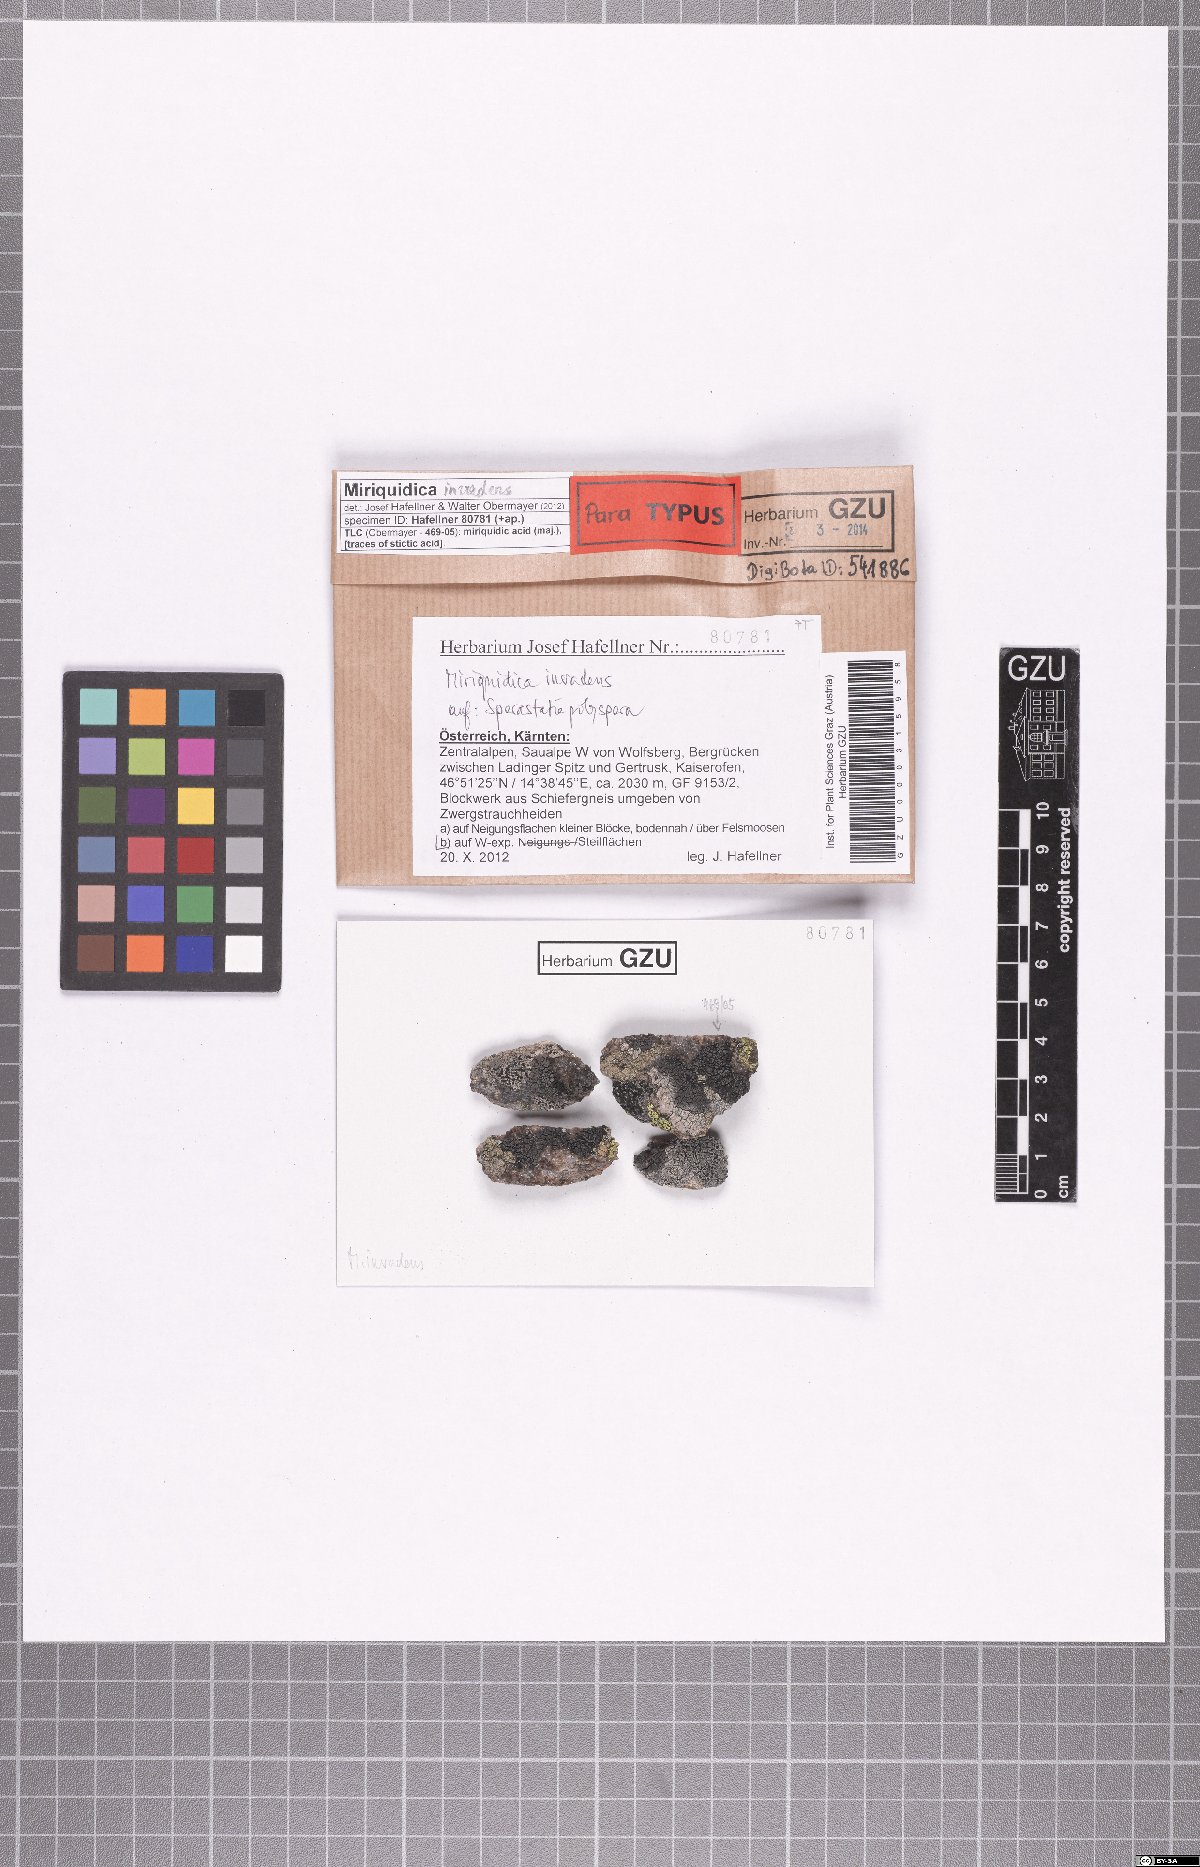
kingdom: Fungi
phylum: Ascomycota
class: Lecanoromycetes
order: Lecanorales
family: Lecanoraceae
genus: Miriquidica
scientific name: Miriquidica invadens
